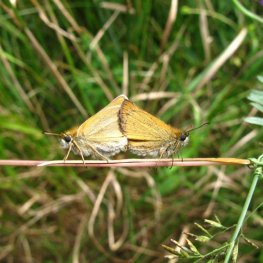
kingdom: Animalia
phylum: Arthropoda
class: Insecta
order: Lepidoptera
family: Hesperiidae
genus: Thymelicus
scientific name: Thymelicus lineola
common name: European Skipper
